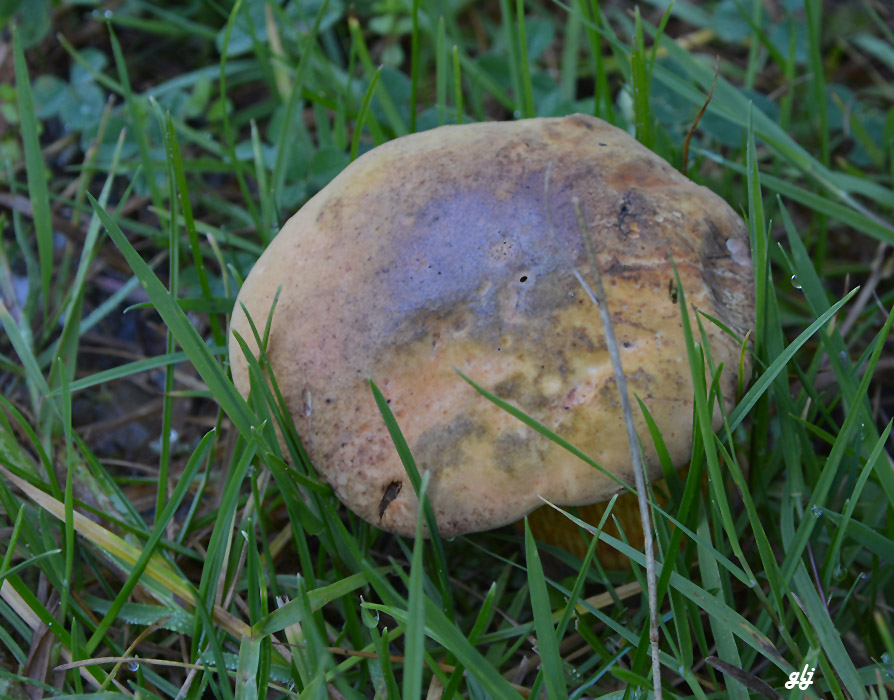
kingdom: Fungi
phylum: Basidiomycota
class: Agaricomycetes
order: Boletales
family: Boletaceae
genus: Suillellus
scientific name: Suillellus luridus
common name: netstokket indigorørhat
